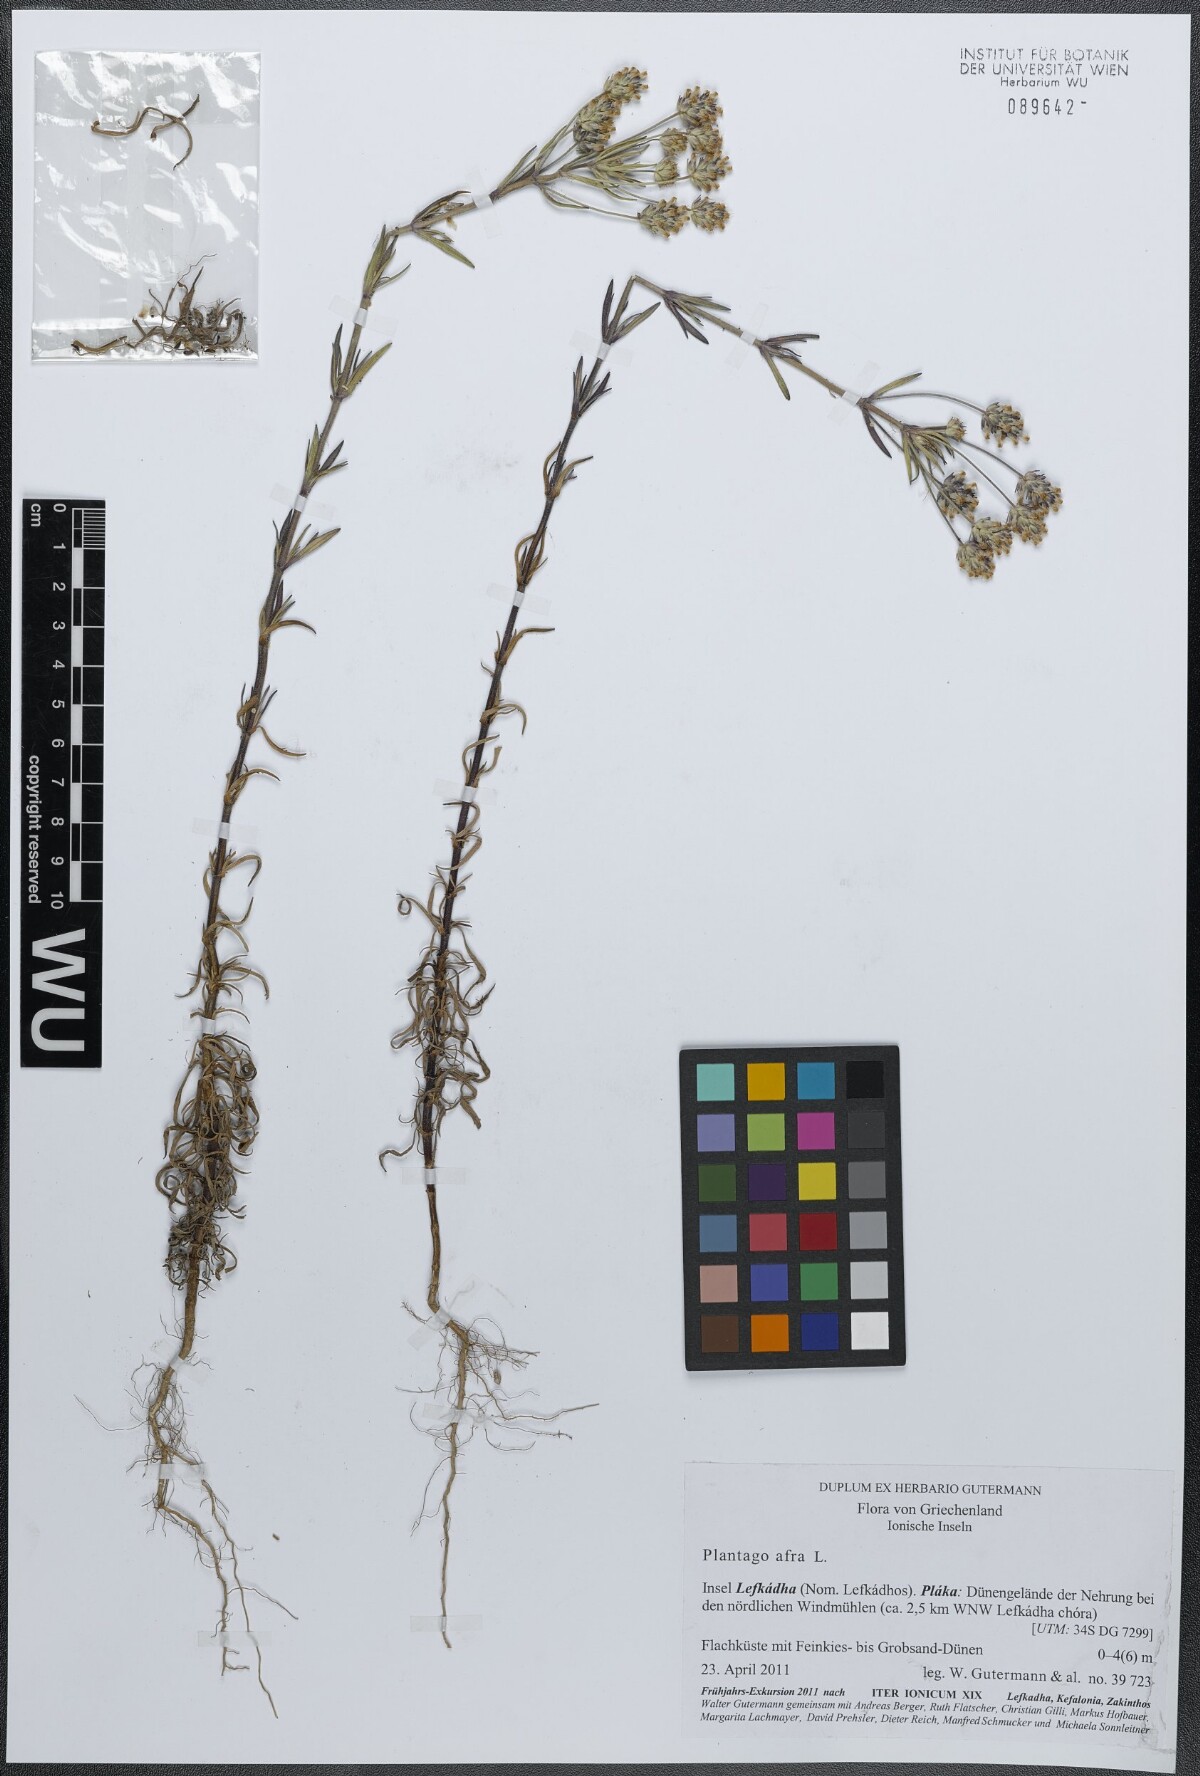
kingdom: Plantae
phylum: Tracheophyta
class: Magnoliopsida
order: Lamiales
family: Plantaginaceae
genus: Plantago
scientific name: Plantago afra
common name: Glandular plantain
